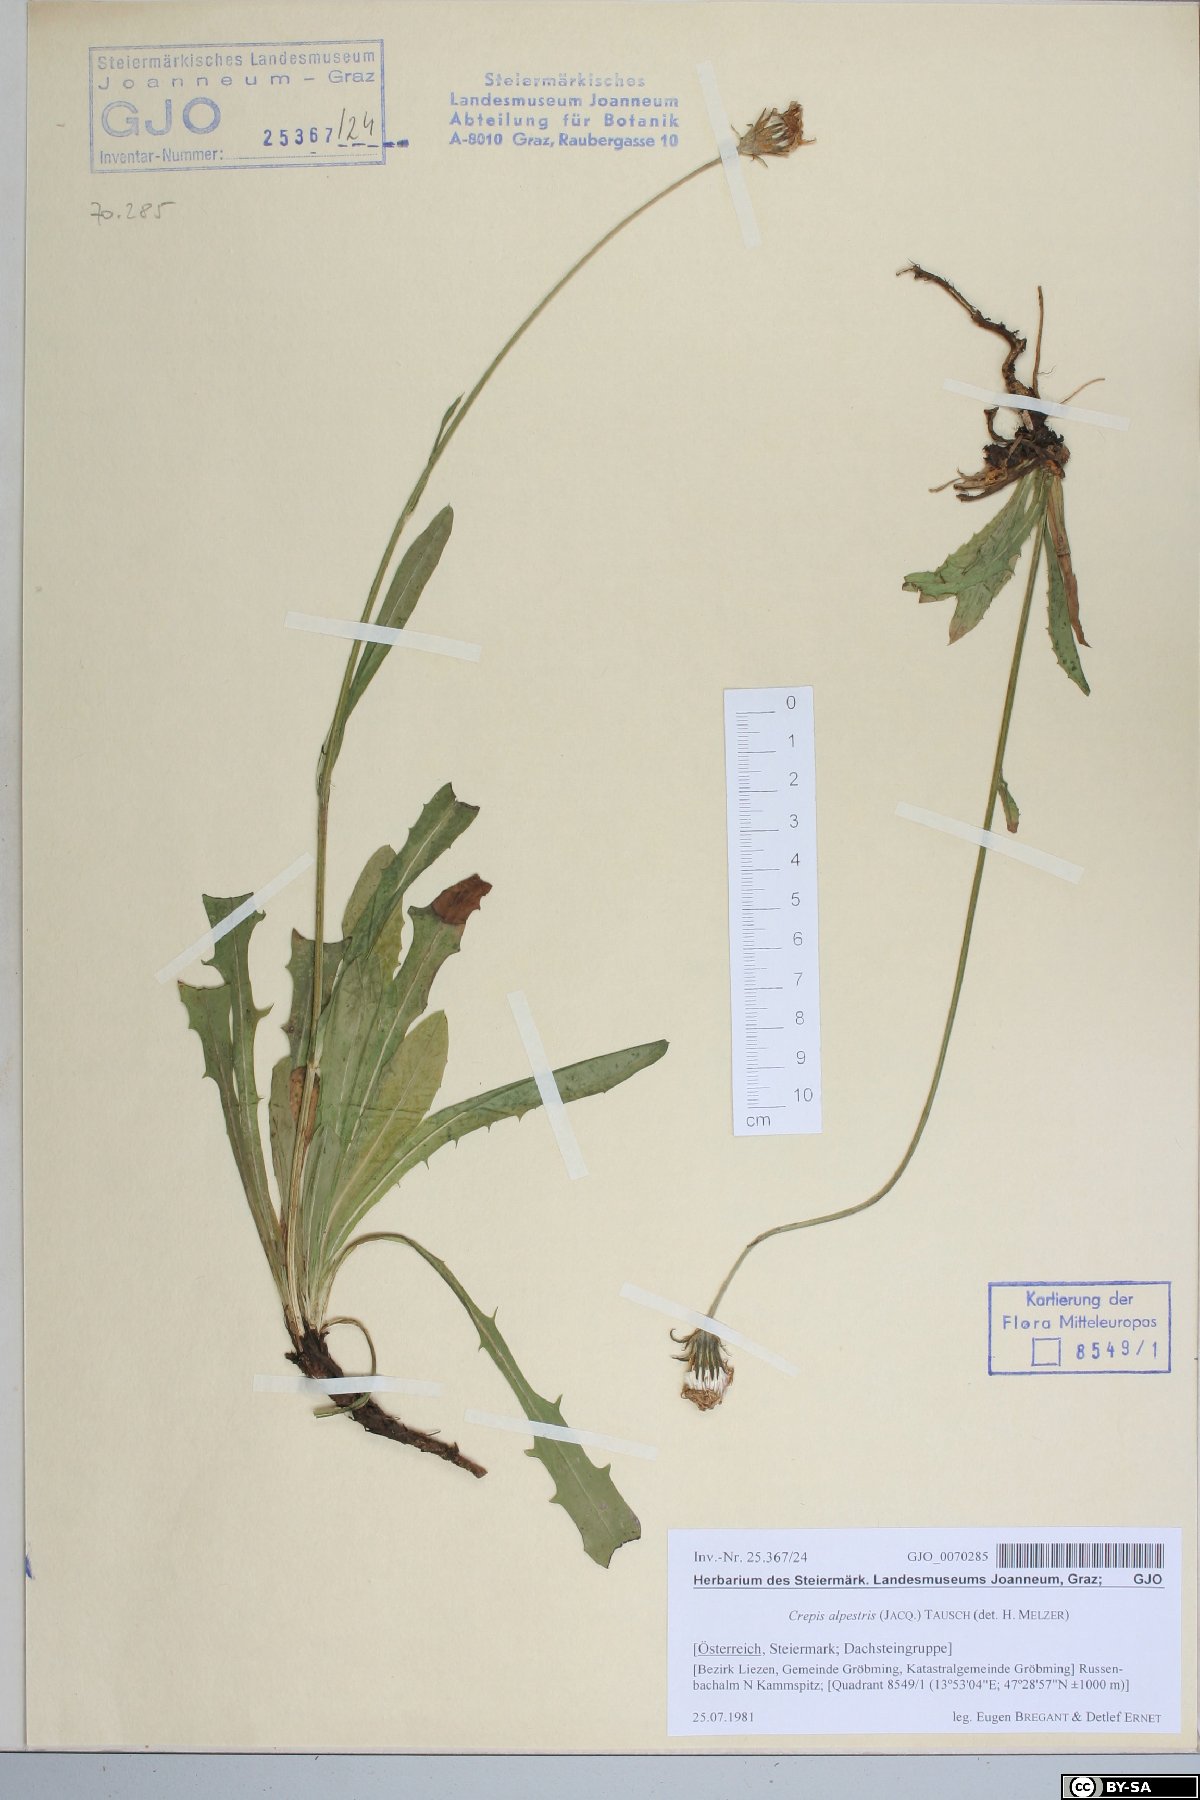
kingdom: Plantae
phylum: Tracheophyta
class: Magnoliopsida
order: Asterales
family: Asteraceae
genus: Crepis
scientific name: Crepis alpestris
